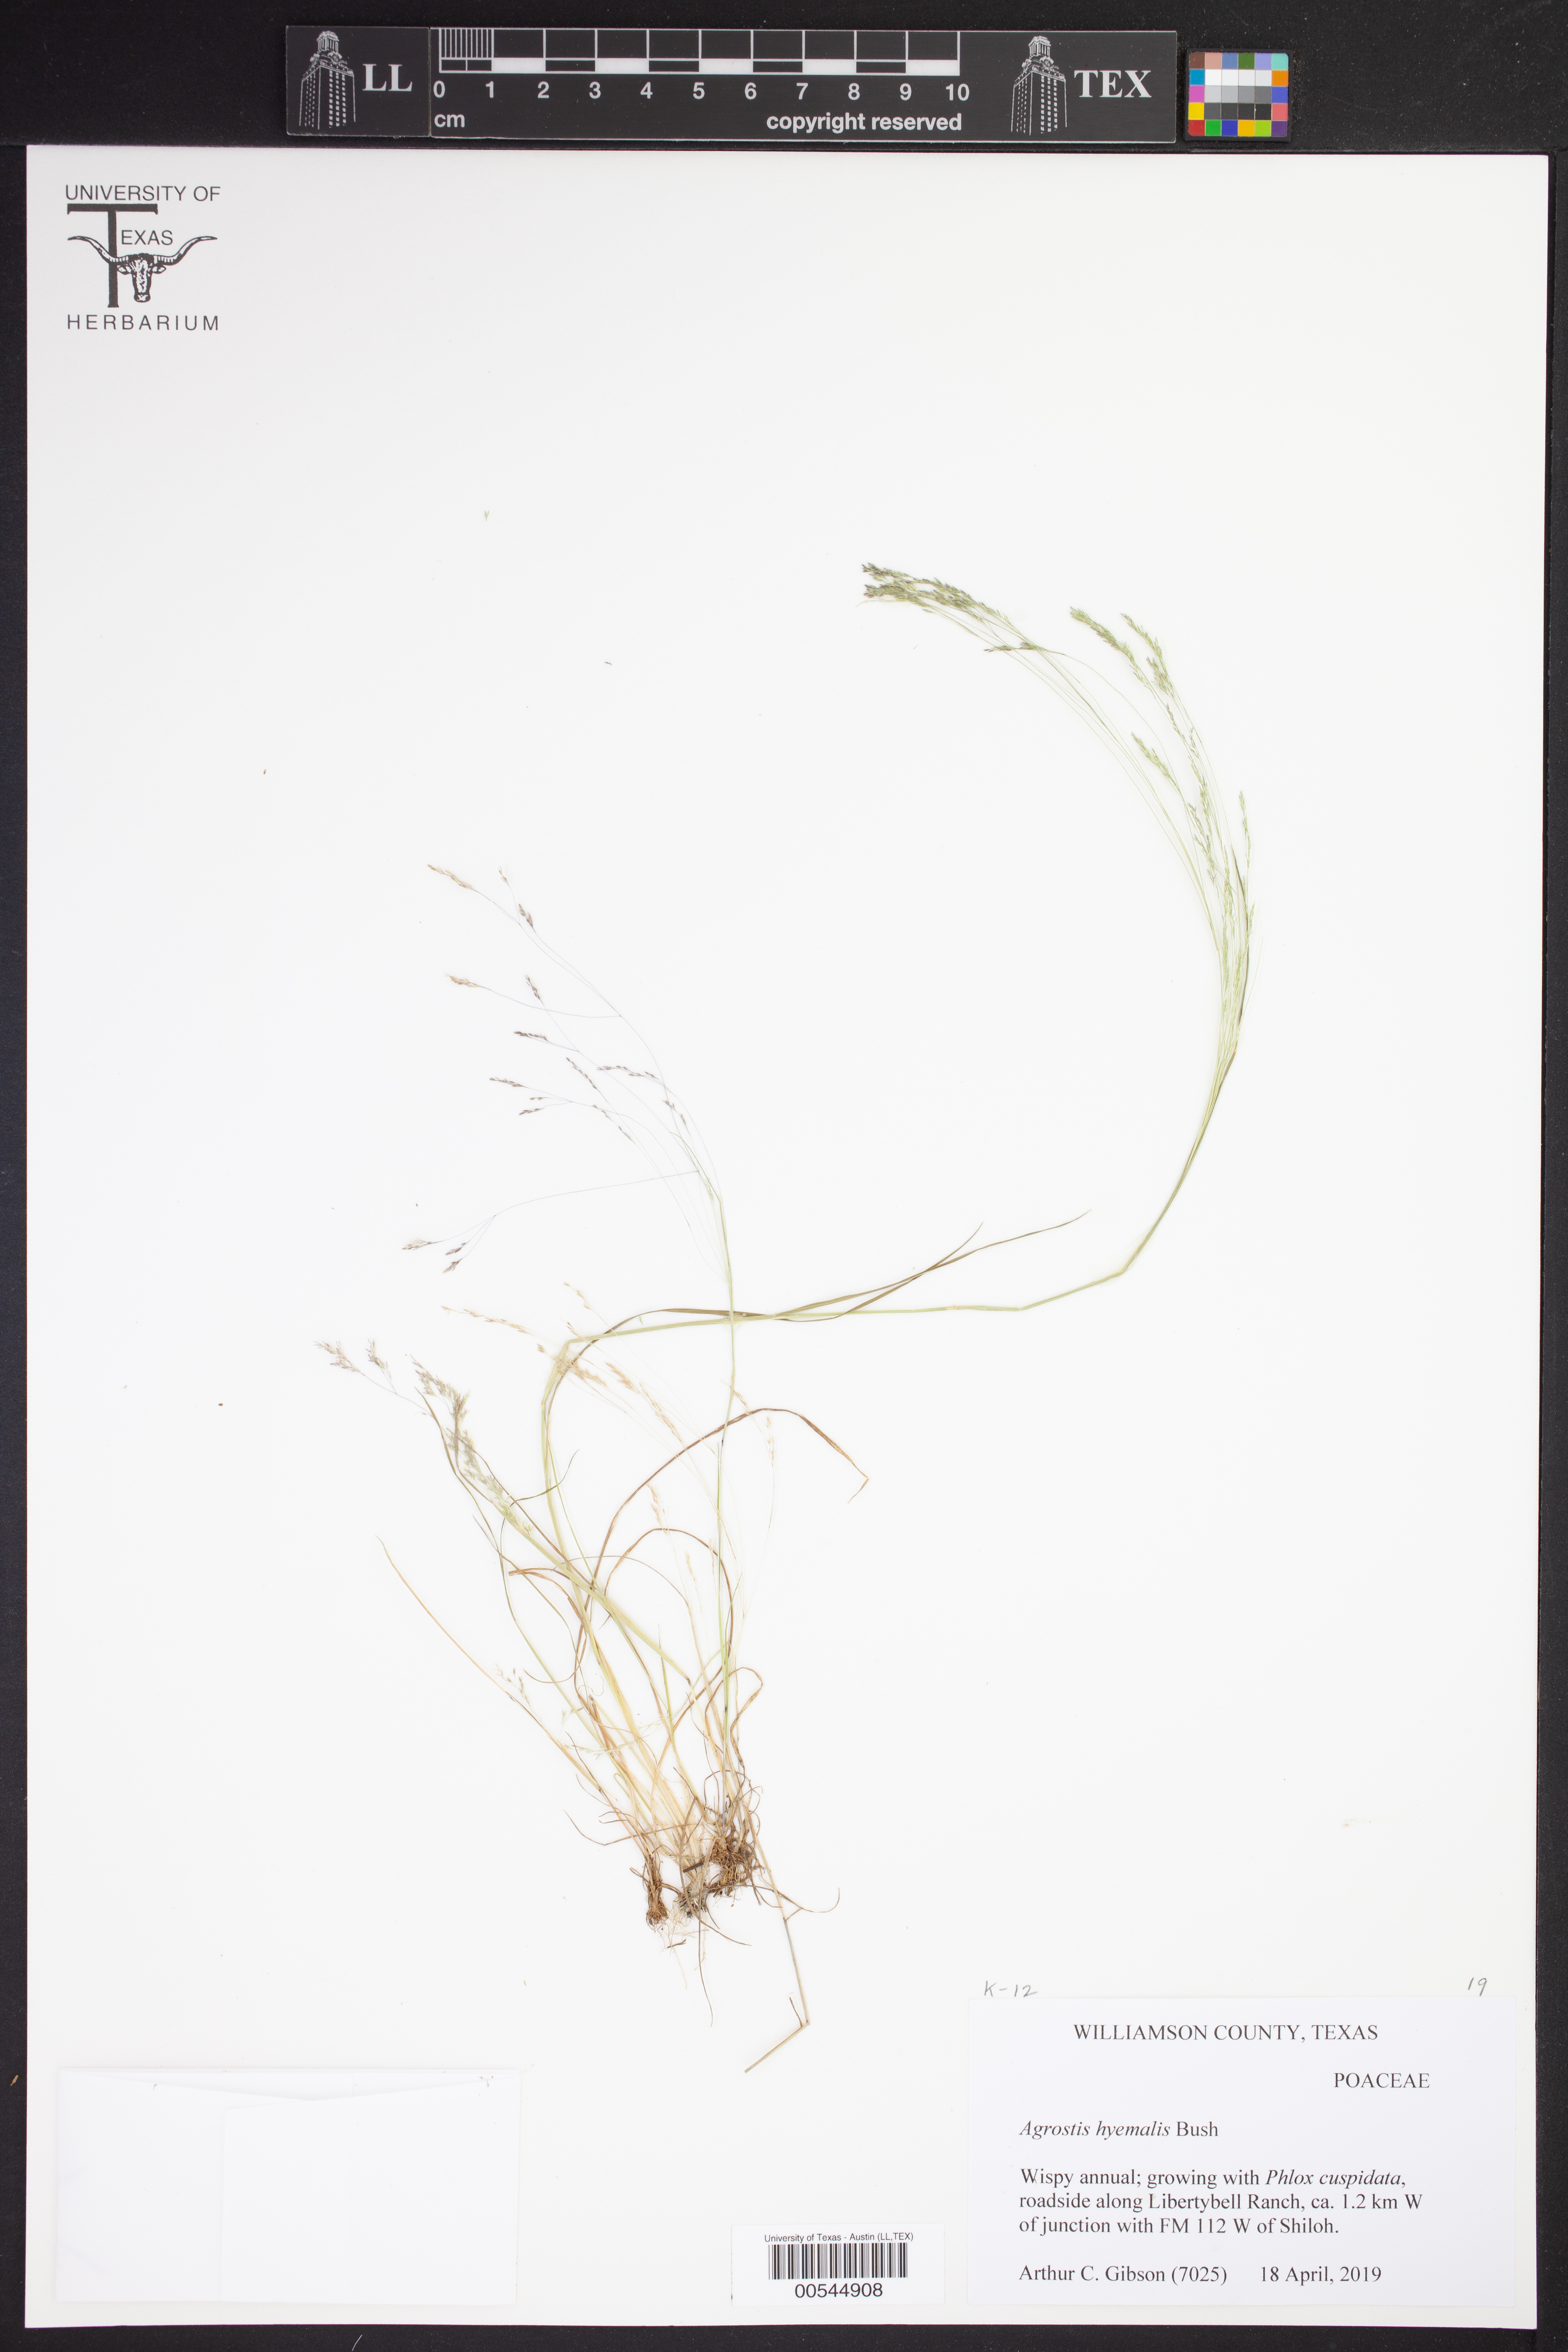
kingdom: Plantae
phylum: Tracheophyta
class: Liliopsida
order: Poales
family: Poaceae
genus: Agrostis
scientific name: Agrostis hyemalis
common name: Small bent
